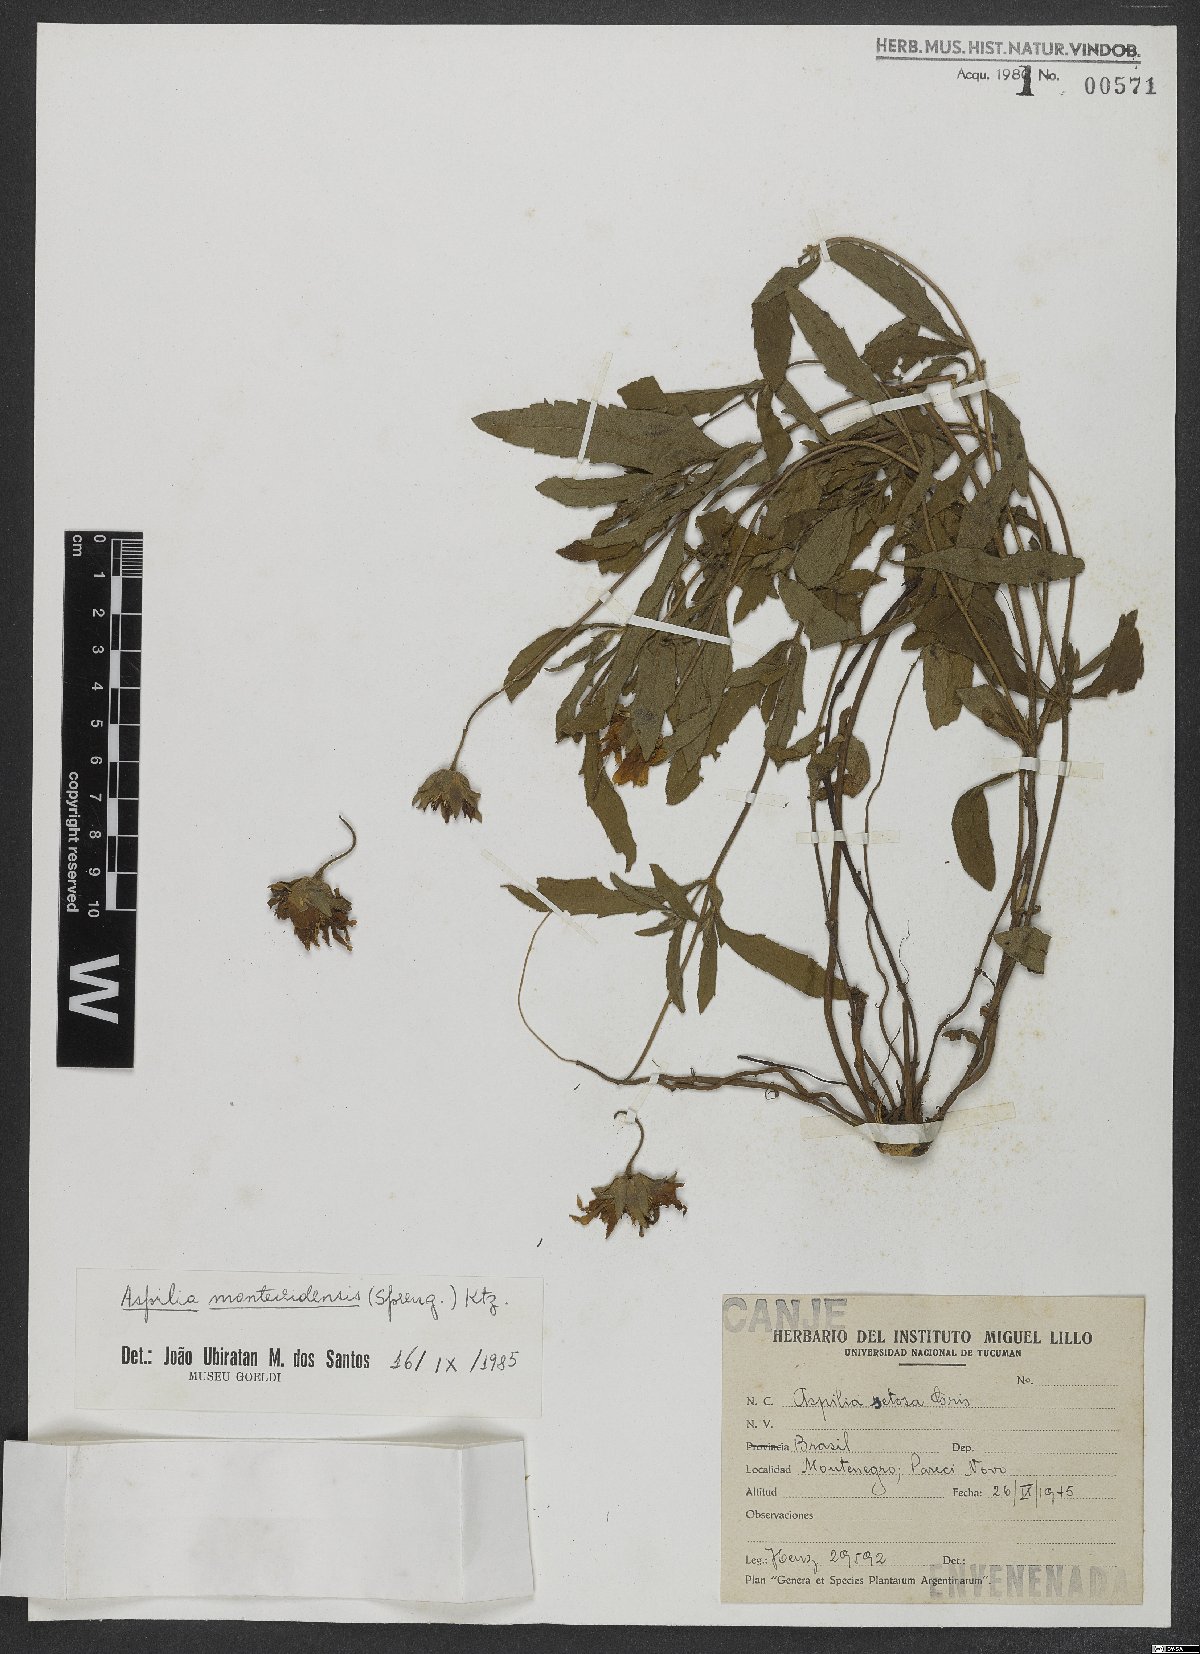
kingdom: Plantae
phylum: Tracheophyta
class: Magnoliopsida
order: Asterales
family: Asteraceae
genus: Wedelia
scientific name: Wedelia montevidensis
